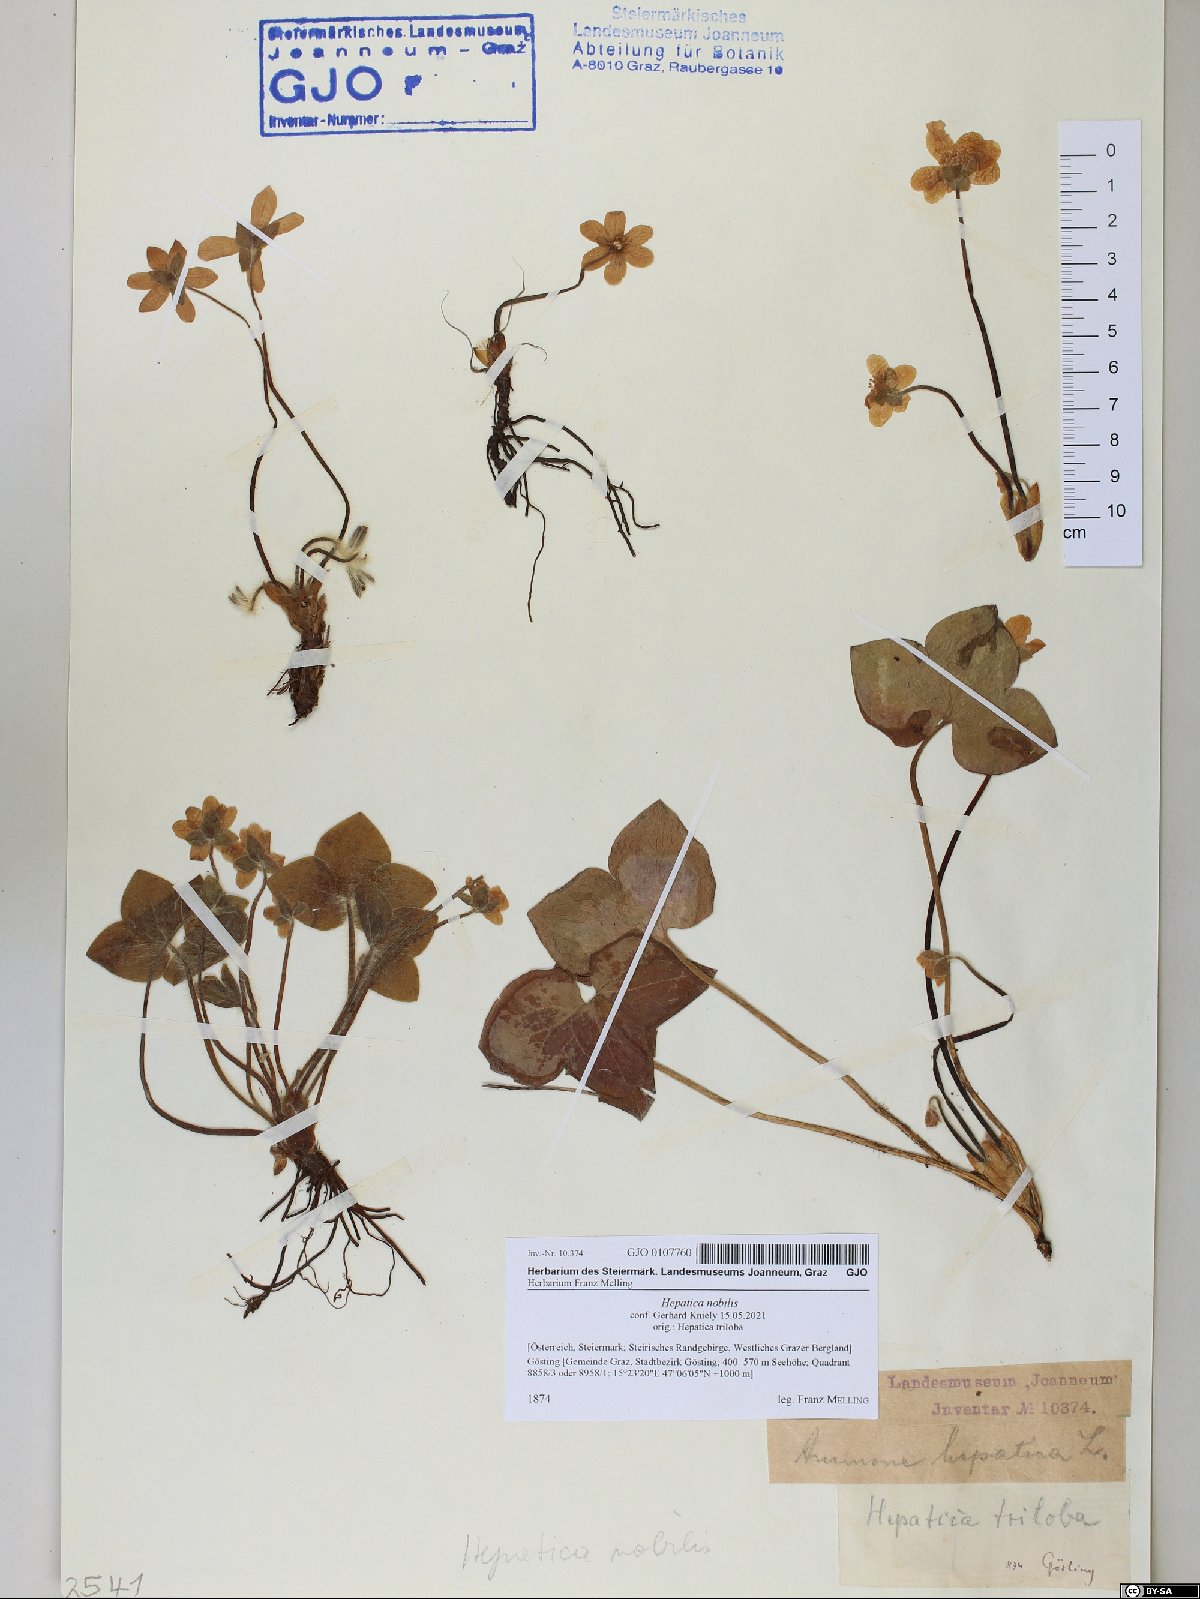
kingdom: Plantae
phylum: Tracheophyta
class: Magnoliopsida
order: Ranunculales
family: Ranunculaceae
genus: Hepatica
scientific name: Hepatica nobilis
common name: Liverleaf
